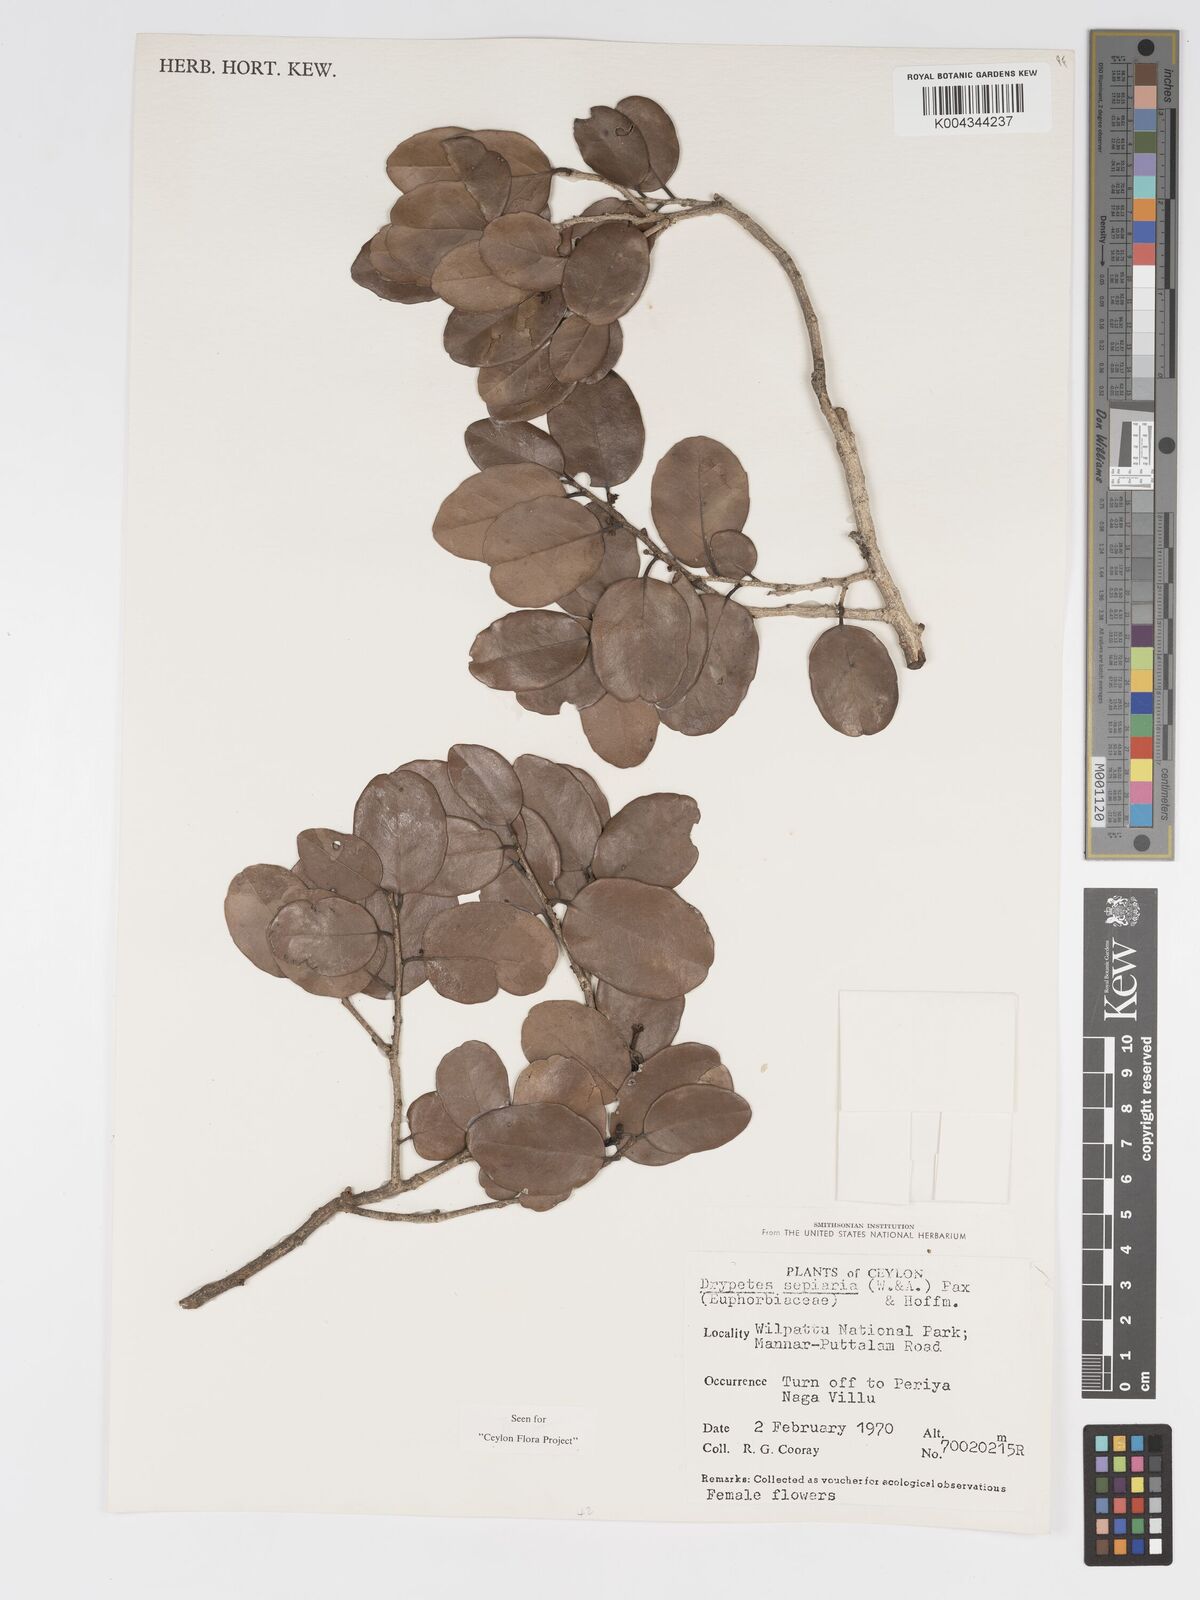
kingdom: Plantae
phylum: Tracheophyta
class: Magnoliopsida
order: Malpighiales
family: Putranjivaceae
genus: Drypetes
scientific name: Drypetes sepiaria
